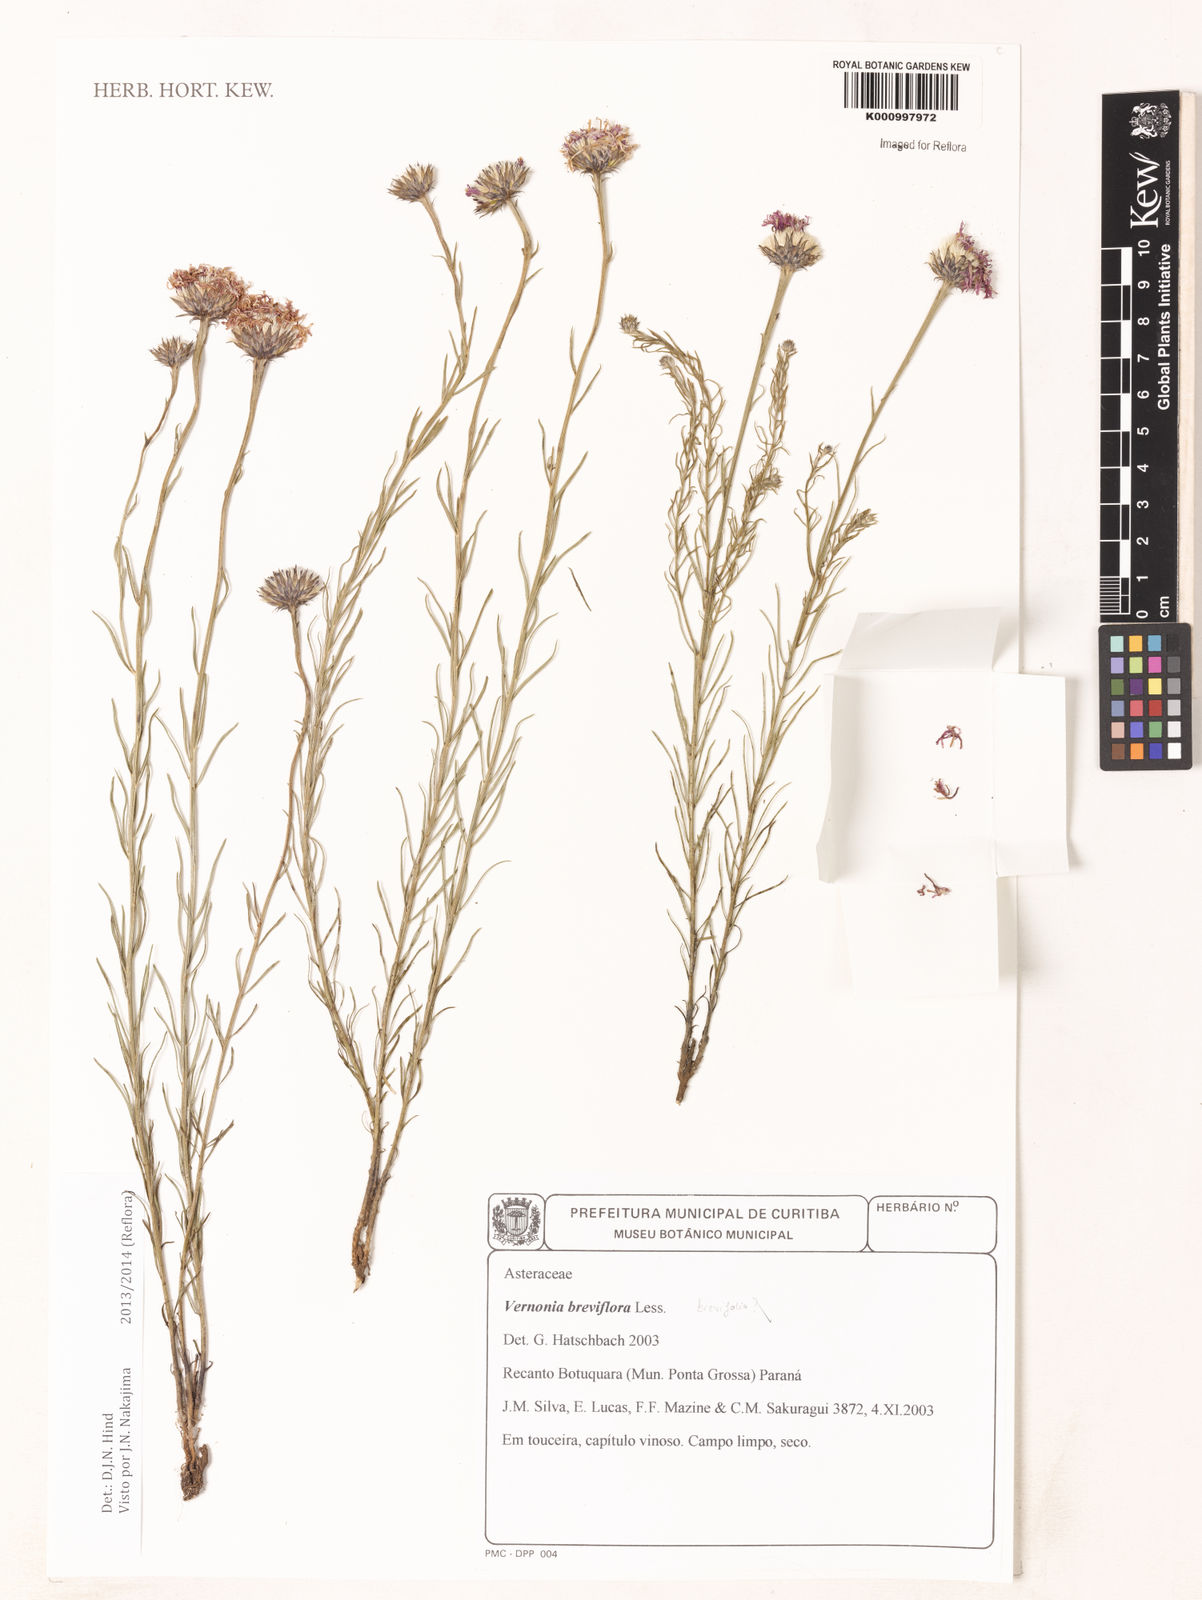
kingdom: Plantae
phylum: Tracheophyta
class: Magnoliopsida
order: Asterales
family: Asteraceae
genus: Lessingianthus
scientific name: Lessingianthus brevifolius
